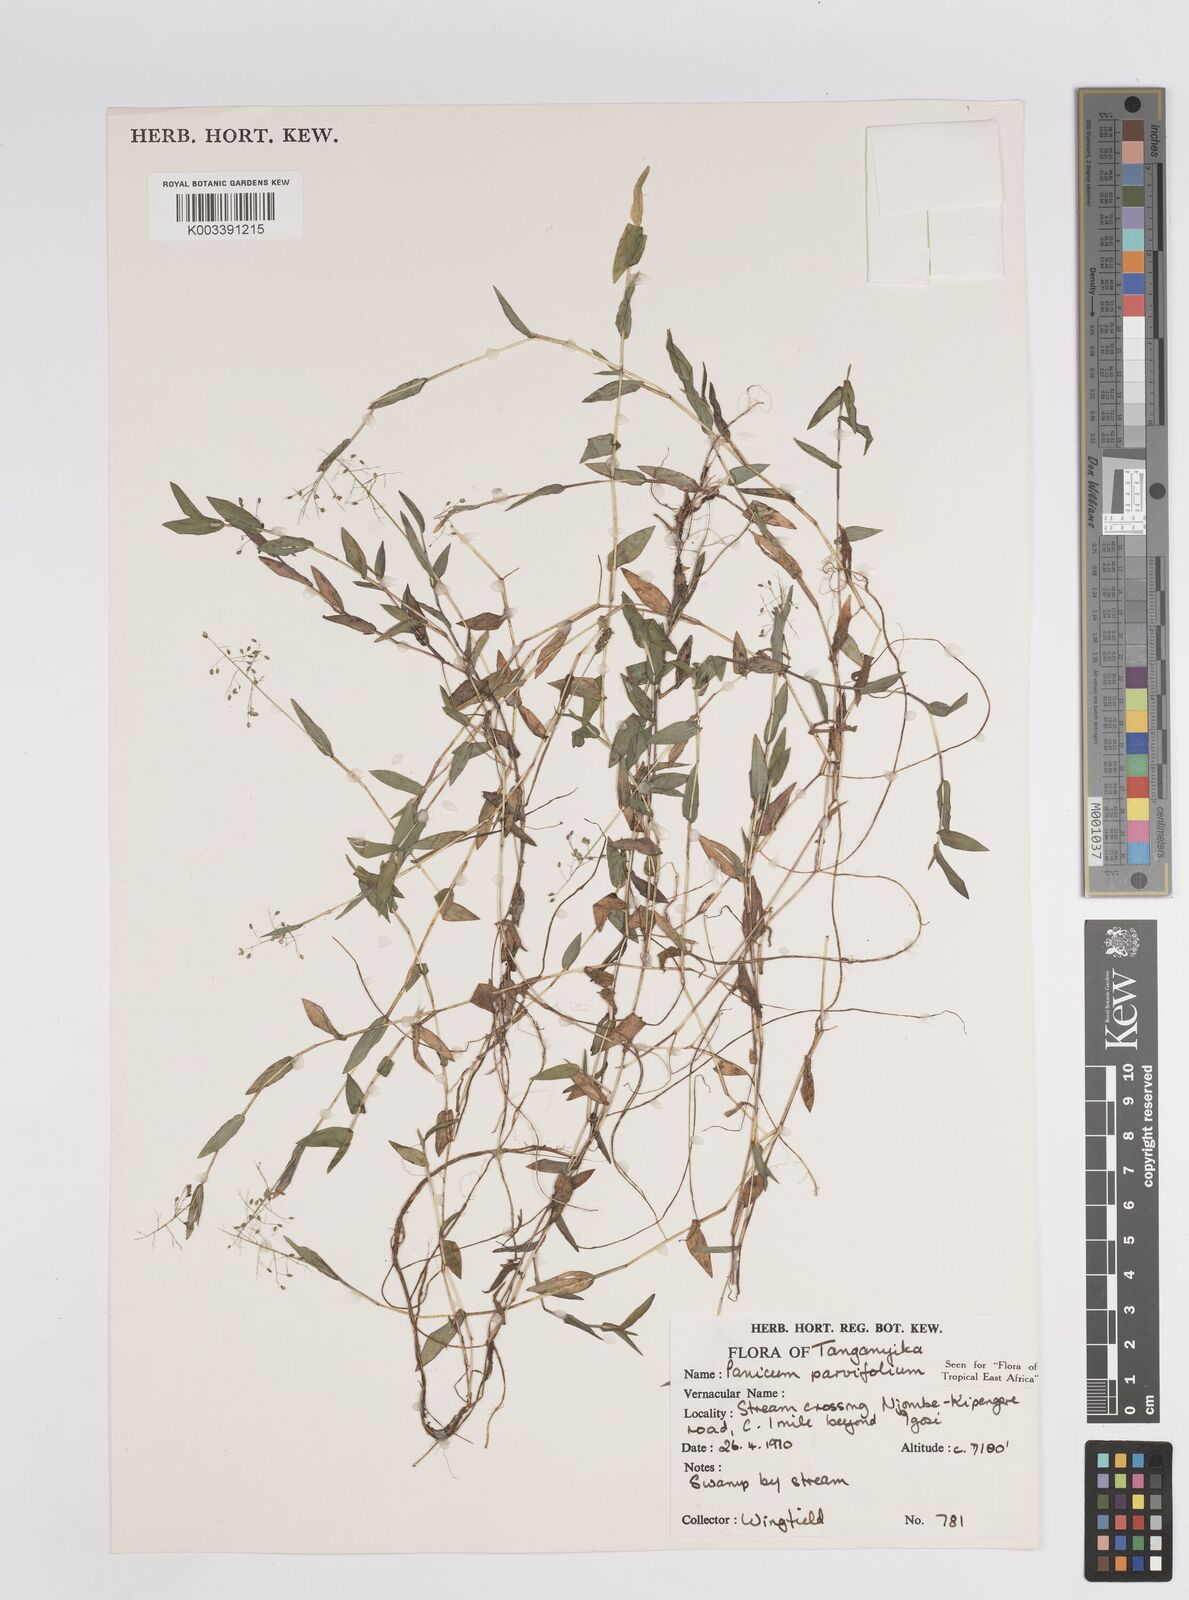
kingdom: Plantae
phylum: Tracheophyta
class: Liliopsida
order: Poales
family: Poaceae
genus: Trichanthecium
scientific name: Trichanthecium parvifolium
